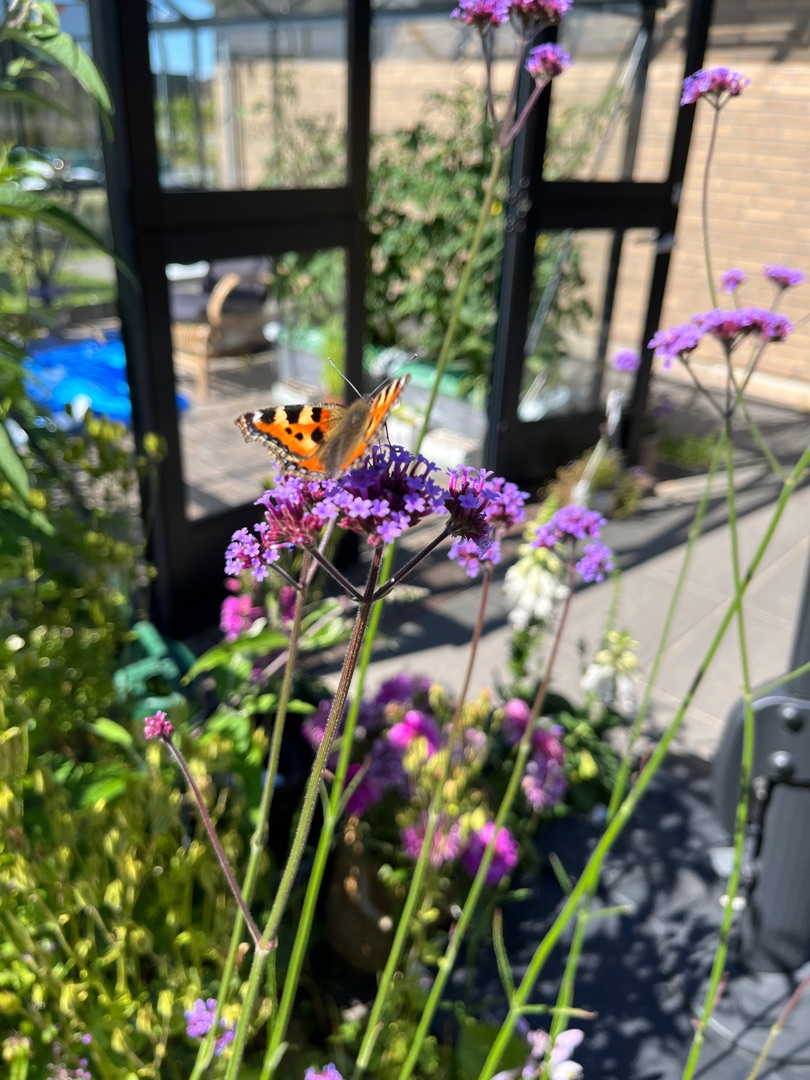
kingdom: Animalia
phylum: Arthropoda
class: Insecta
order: Lepidoptera
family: Nymphalidae
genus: Aglais
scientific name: Aglais urticae
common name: Nældens takvinge
